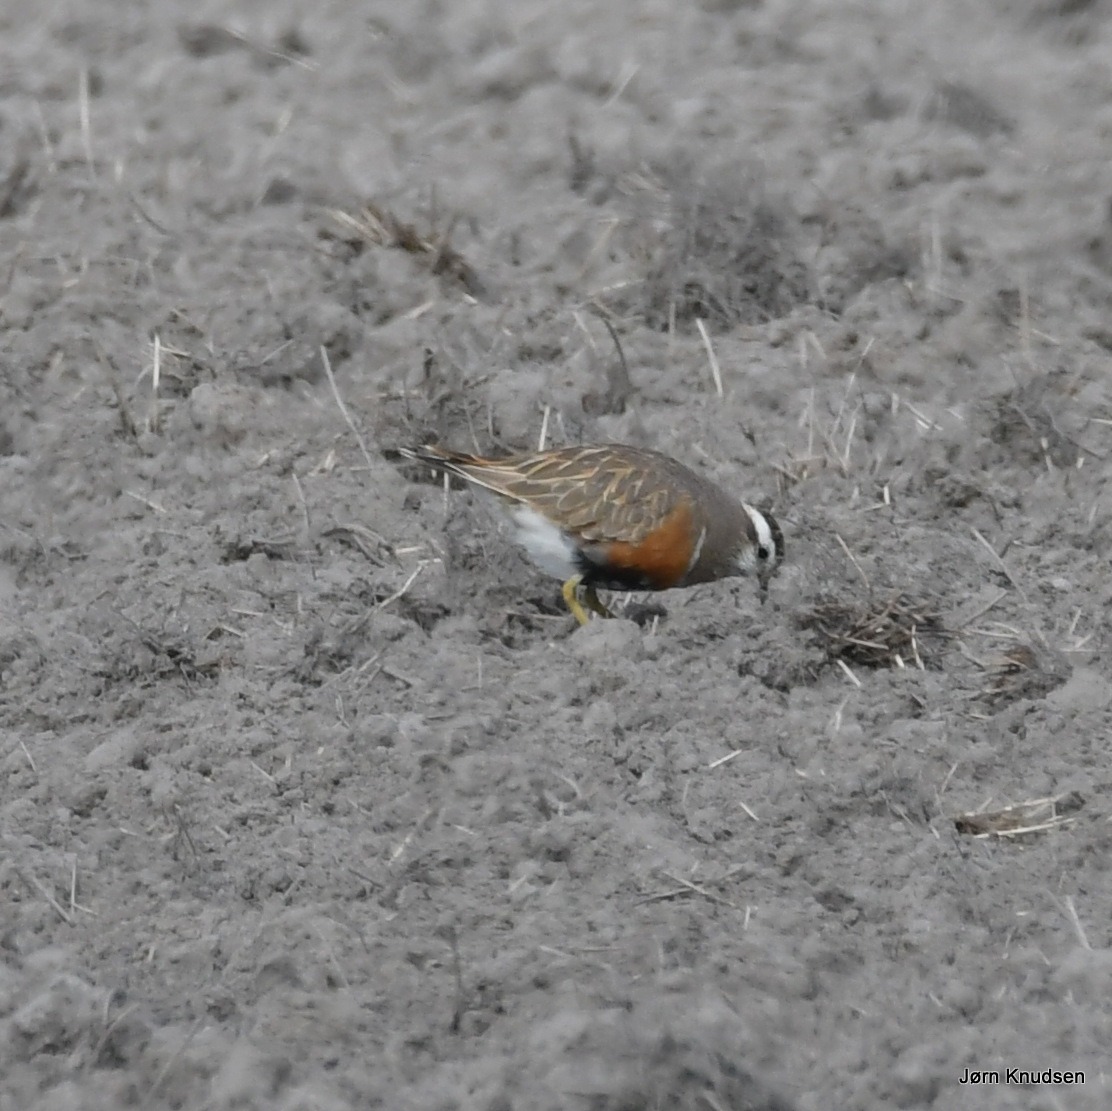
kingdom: Animalia
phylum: Chordata
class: Aves
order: Charadriiformes
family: Charadriidae
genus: Charadrius
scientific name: Charadrius morinellus
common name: Pomeransfugl
